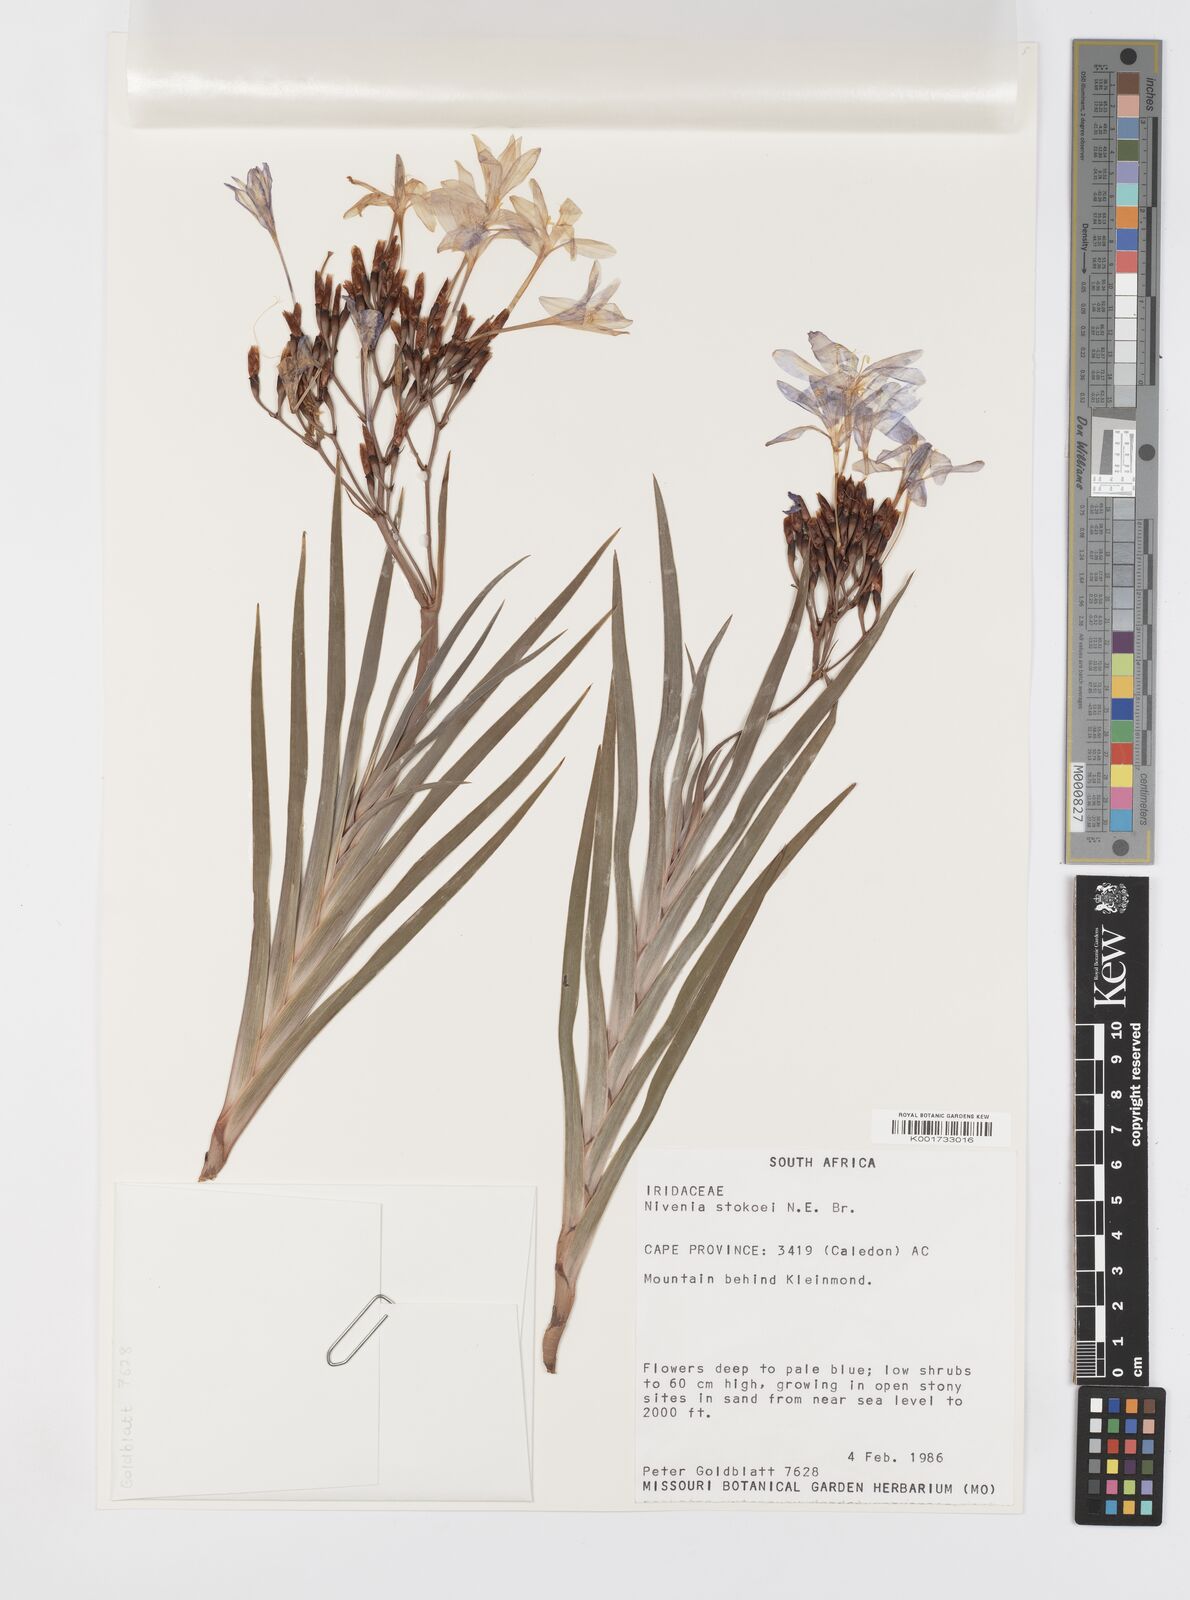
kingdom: Plantae
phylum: Tracheophyta
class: Liliopsida
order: Asparagales
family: Iridaceae
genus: Nivenia
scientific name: Nivenia stokoei
